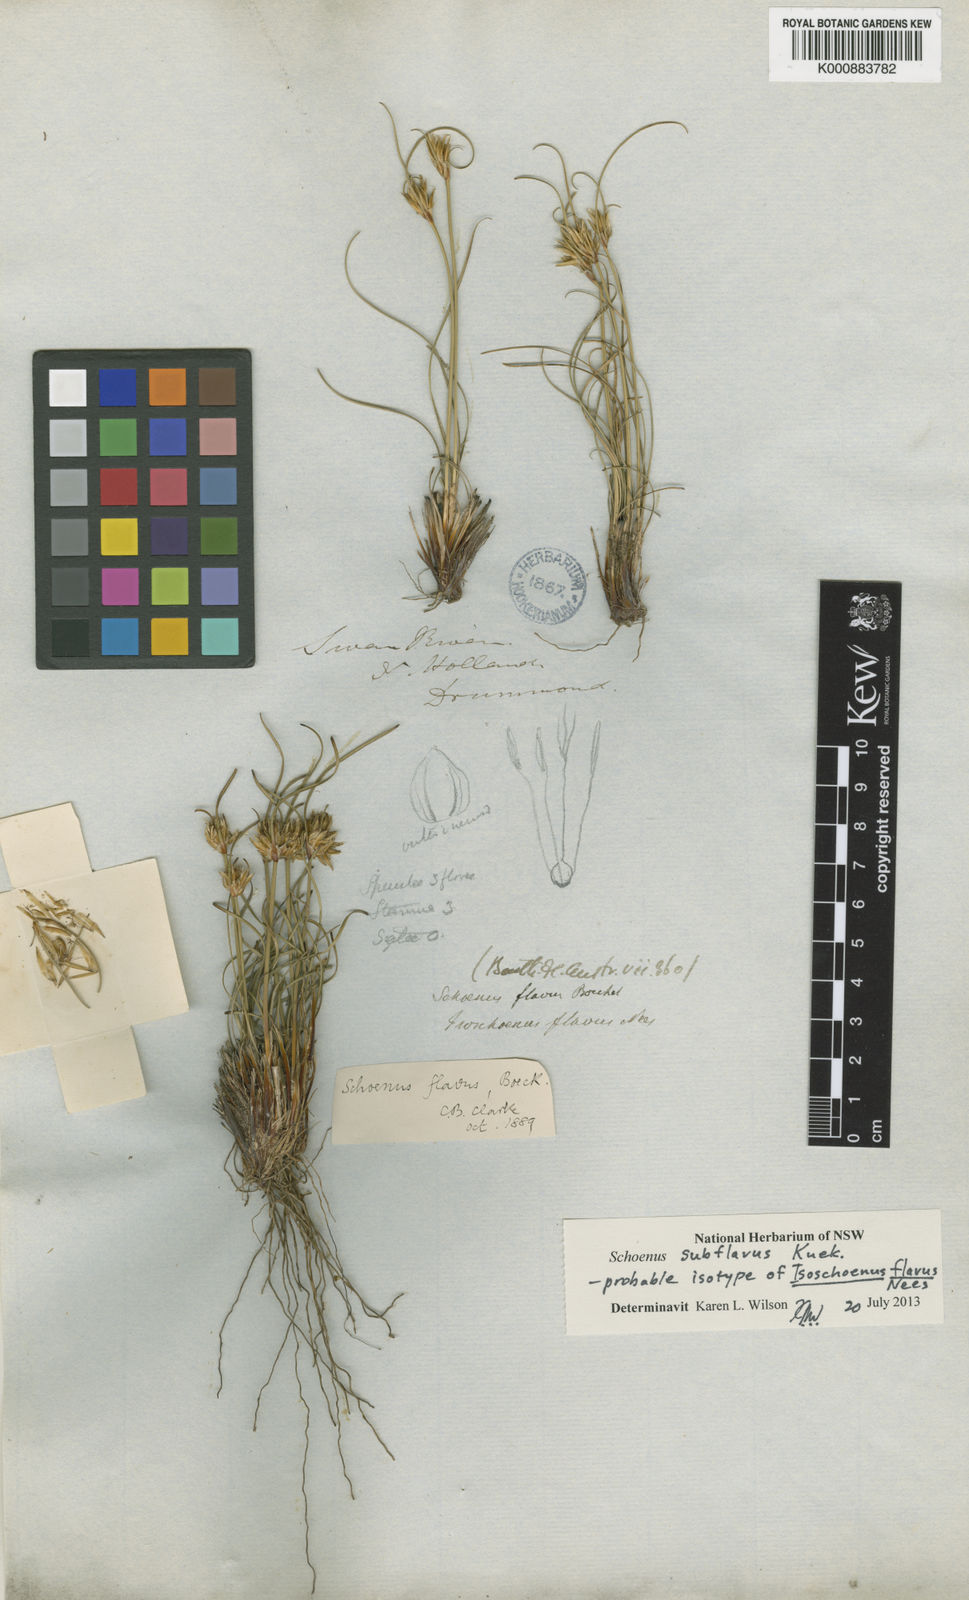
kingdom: Plantae
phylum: Tracheophyta
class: Liliopsida
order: Poales
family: Cyperaceae
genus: Schoenus
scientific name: Schoenus
